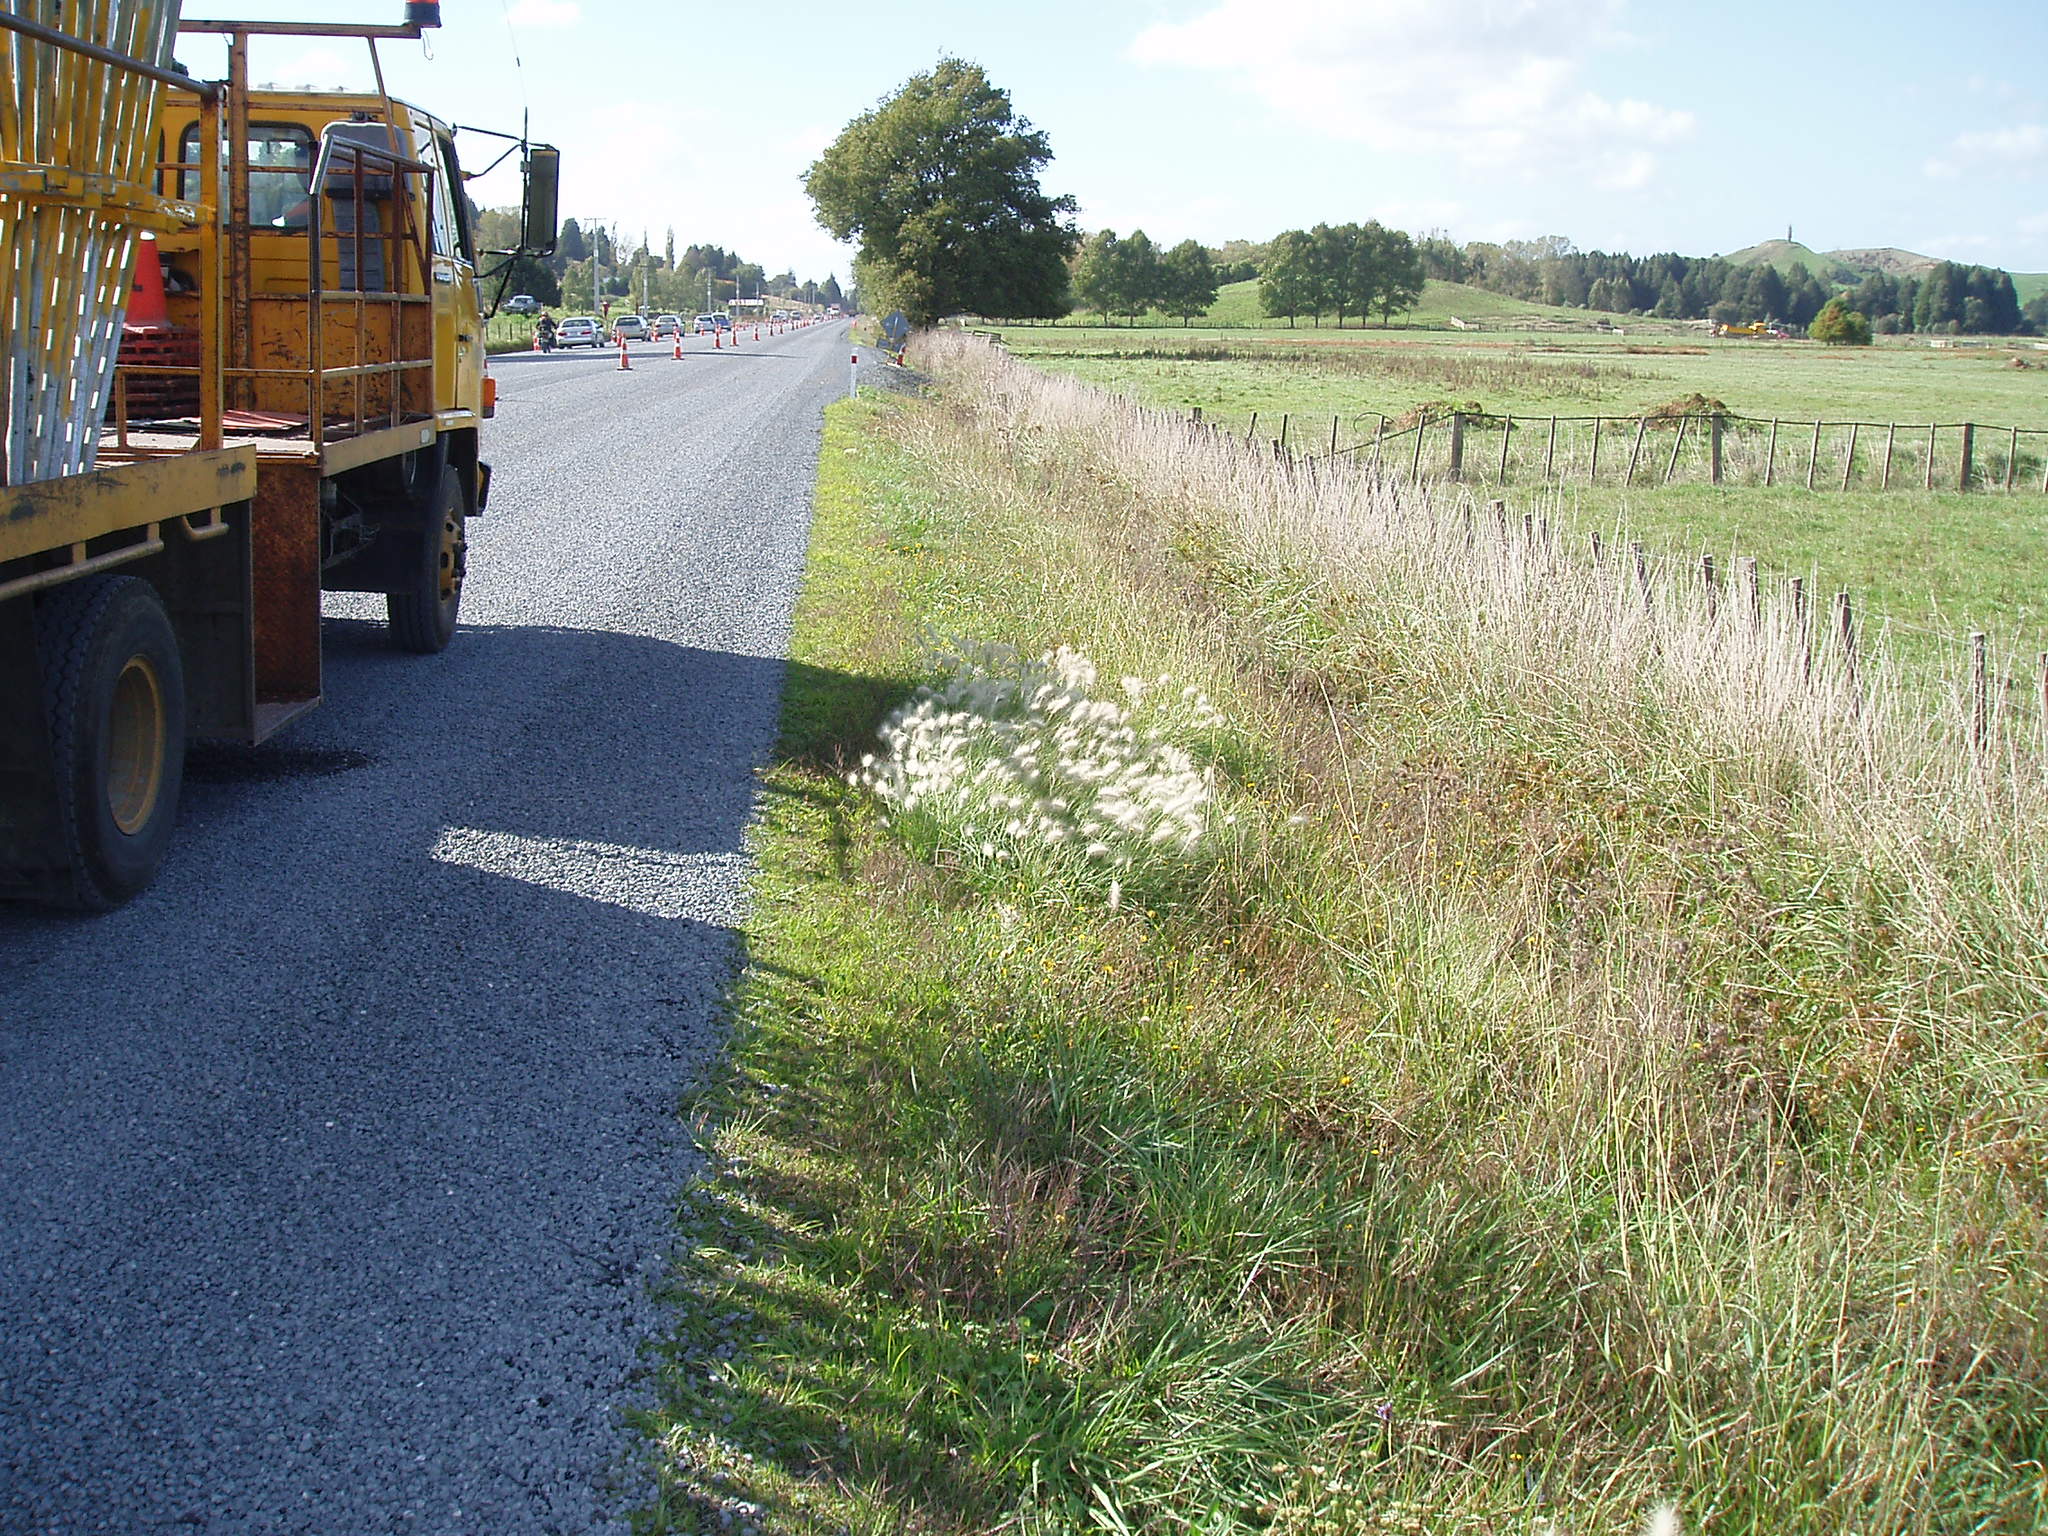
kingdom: Plantae
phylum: Tracheophyta
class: Liliopsida
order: Poales
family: Poaceae
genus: Cenchrus
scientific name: Cenchrus longisetus
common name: Feathertop
